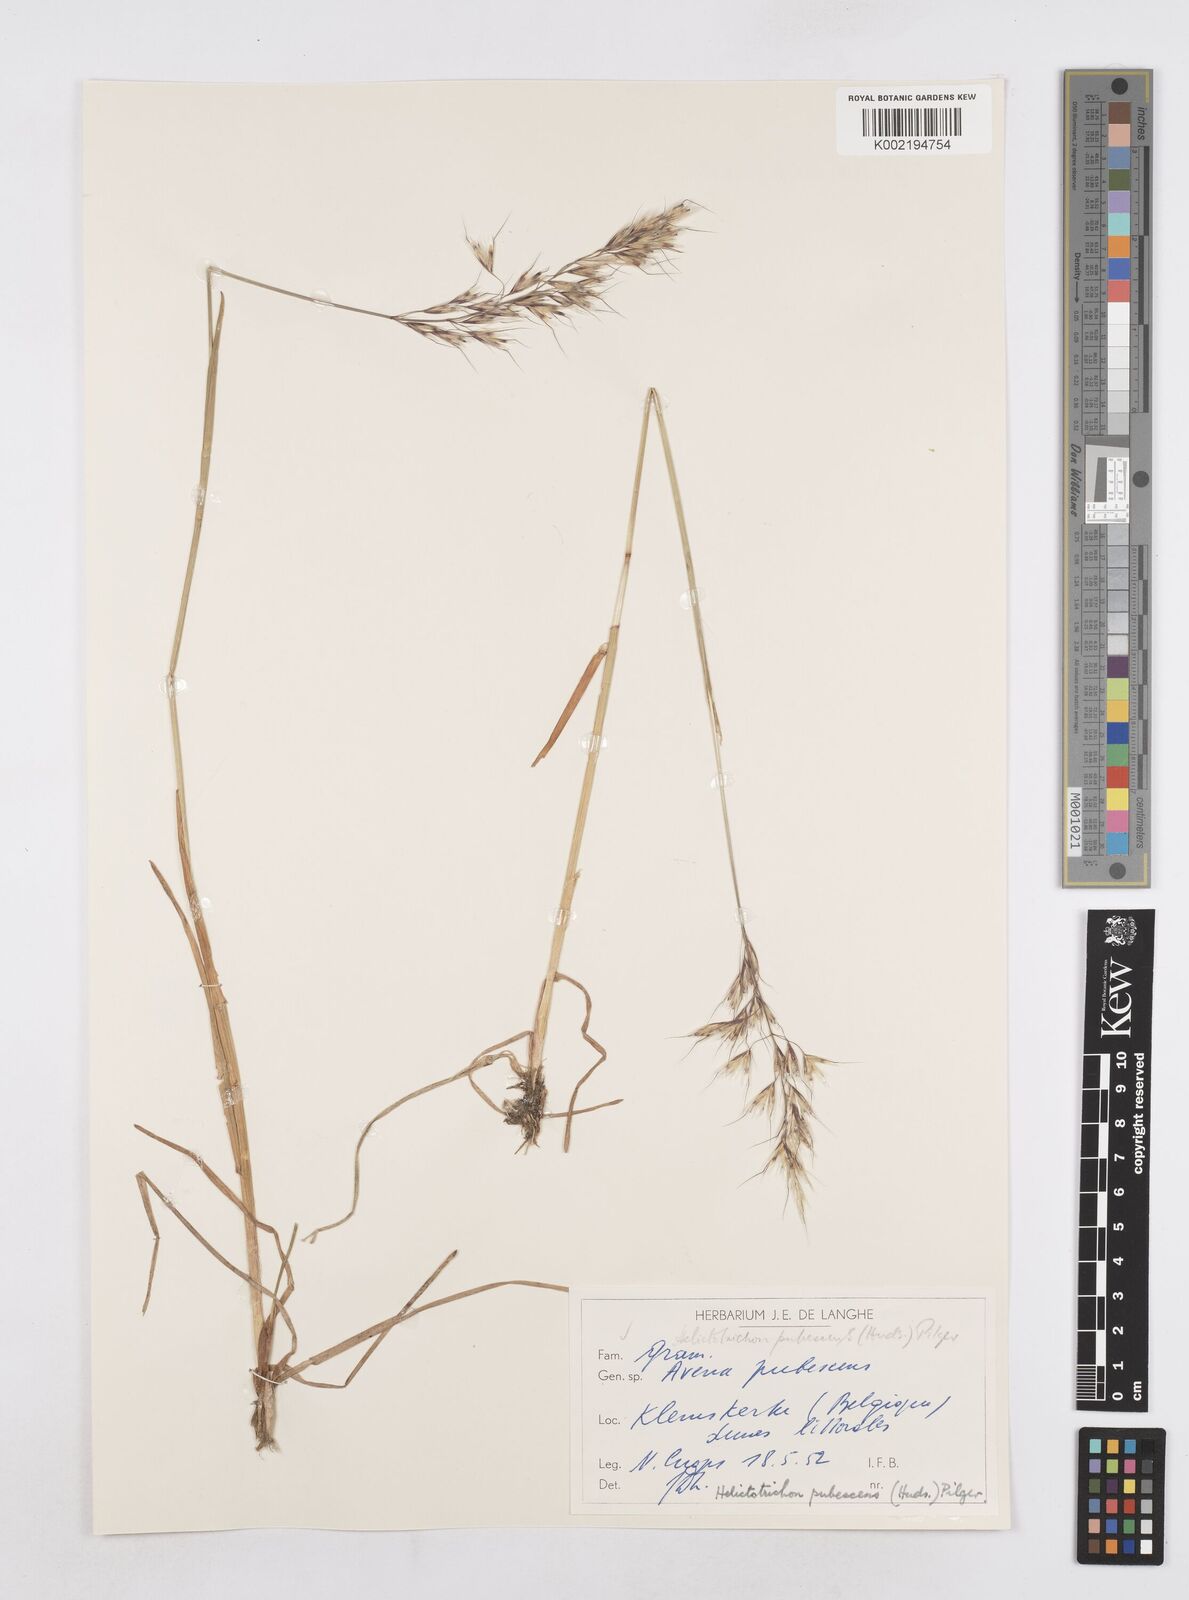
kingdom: Plantae
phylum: Tracheophyta
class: Liliopsida
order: Poales
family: Poaceae
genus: Avenula
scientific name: Avenula pubescens
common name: Downy alpine oatgrass
